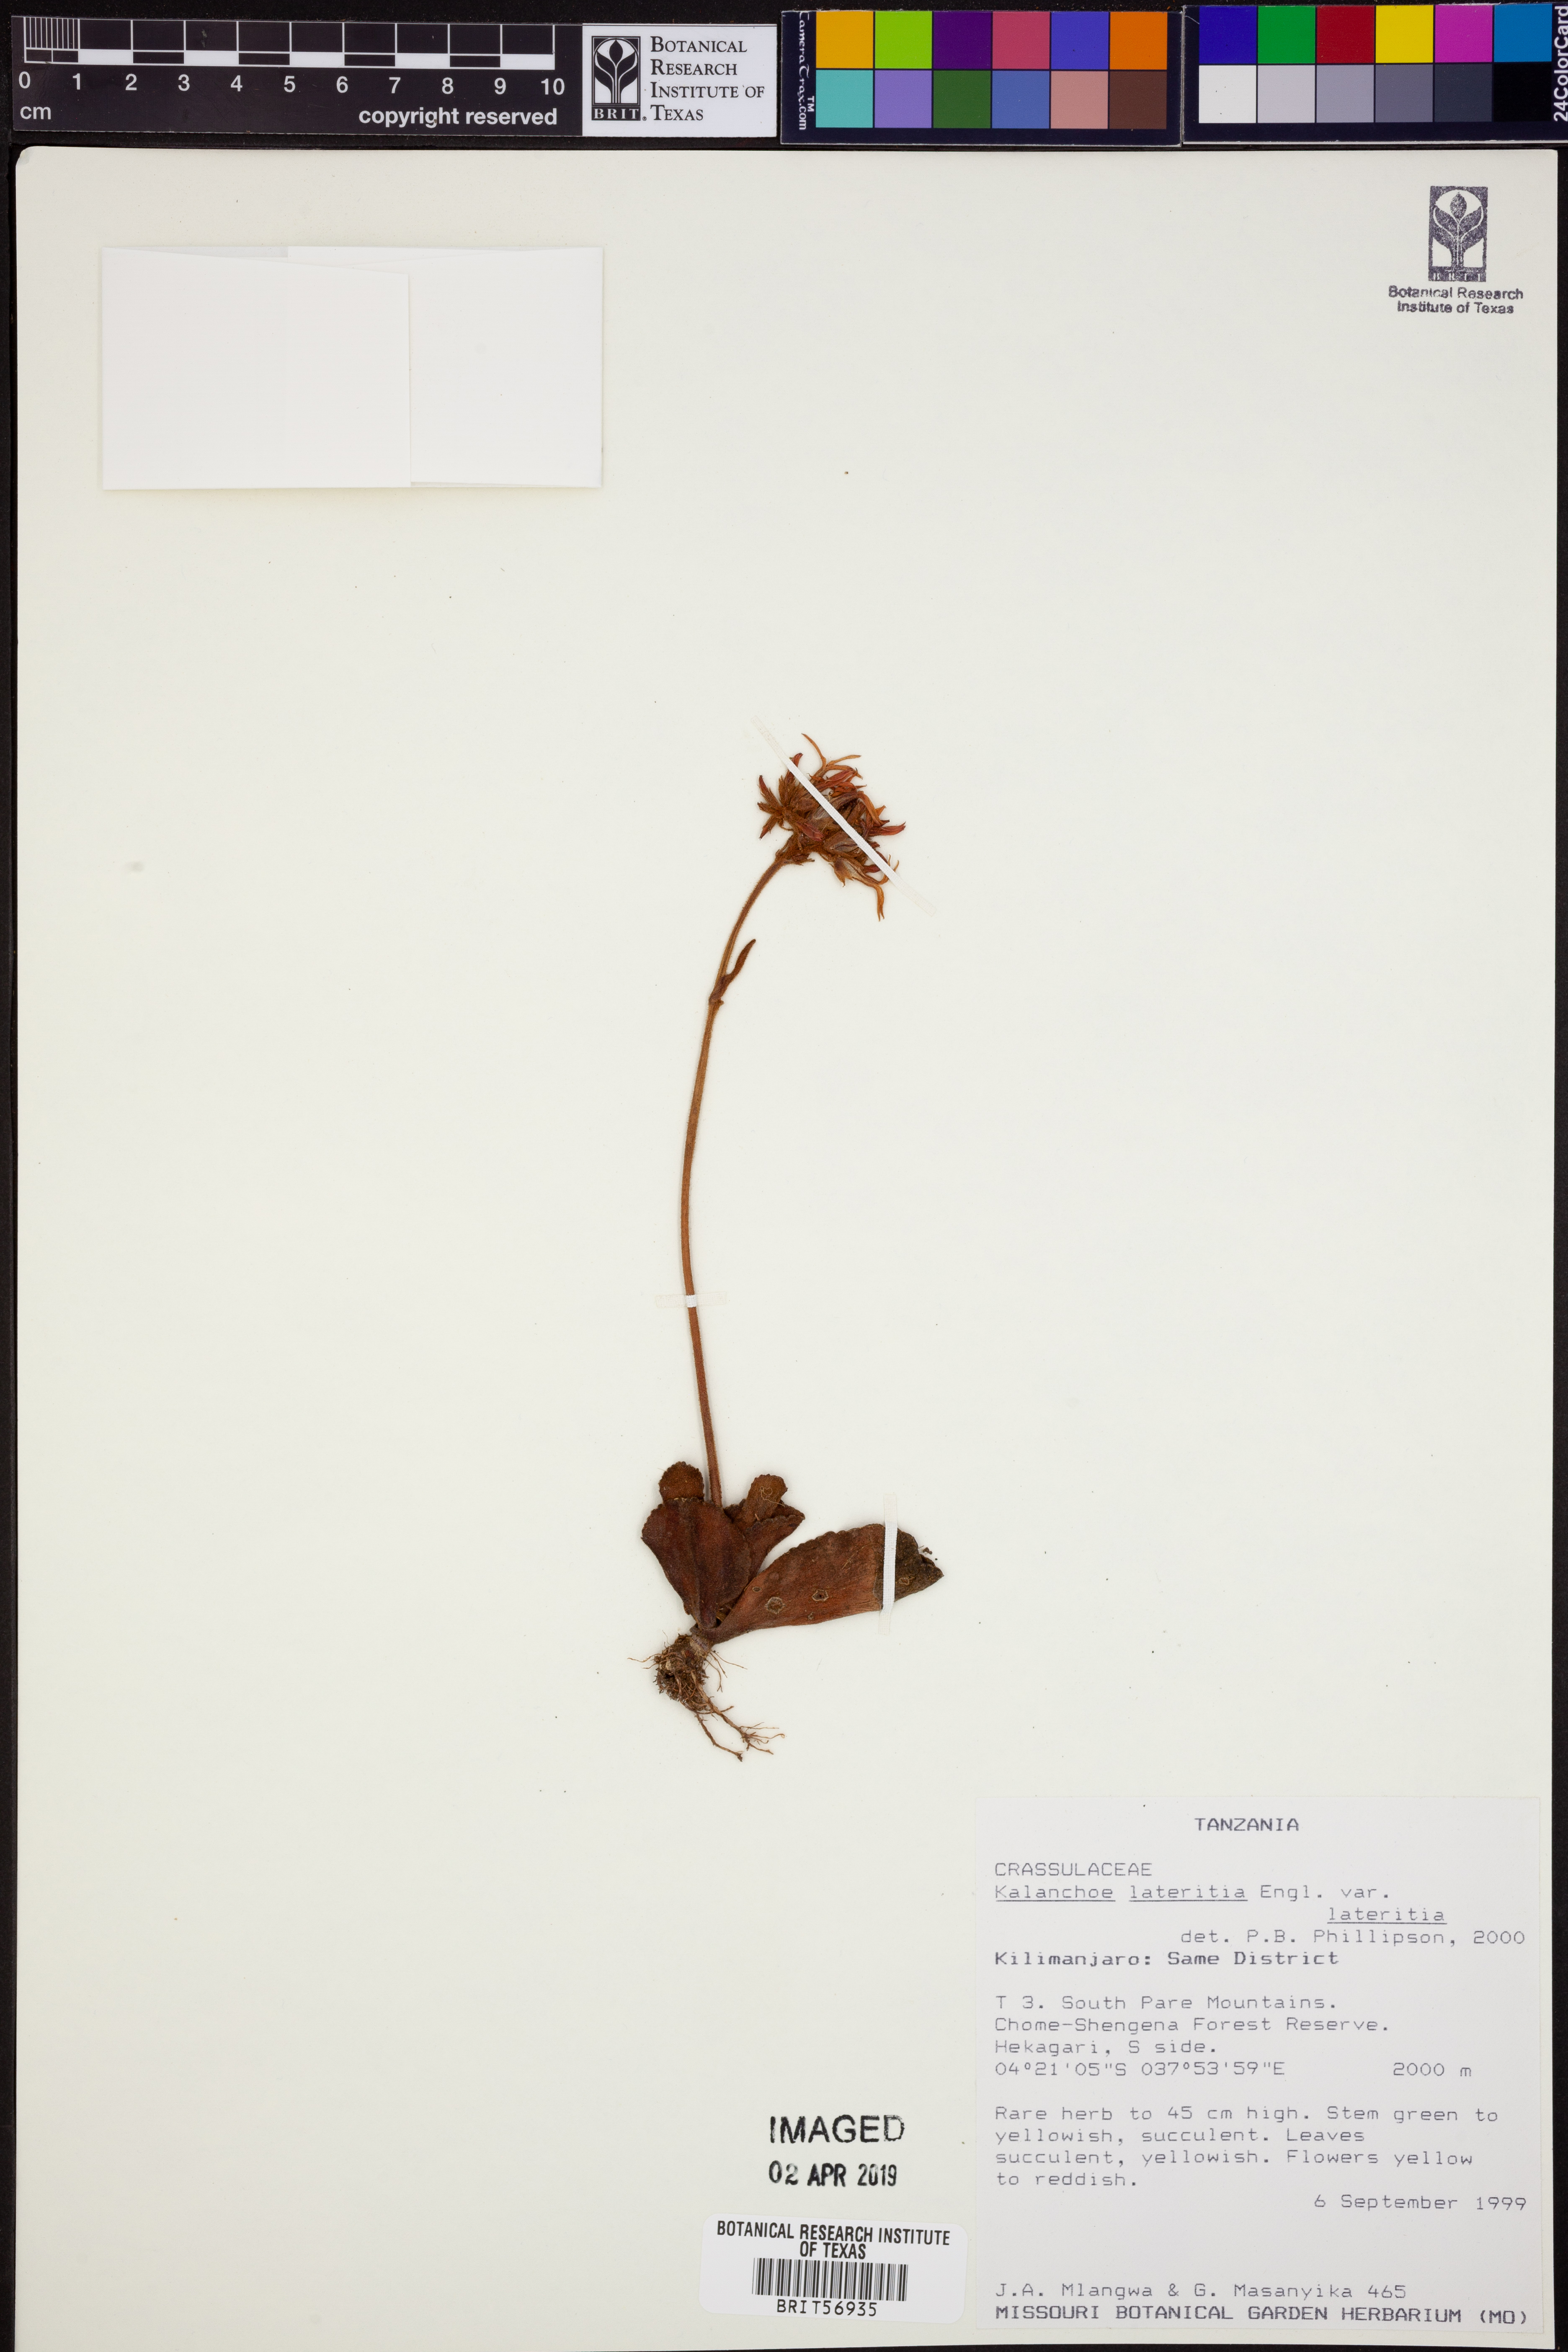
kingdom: Plantae
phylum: Tracheophyta
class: Magnoliopsida
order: Saxifragales
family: Crassulaceae
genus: Kalanchoe
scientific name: Kalanchoe lateritia
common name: Kalanchoe
